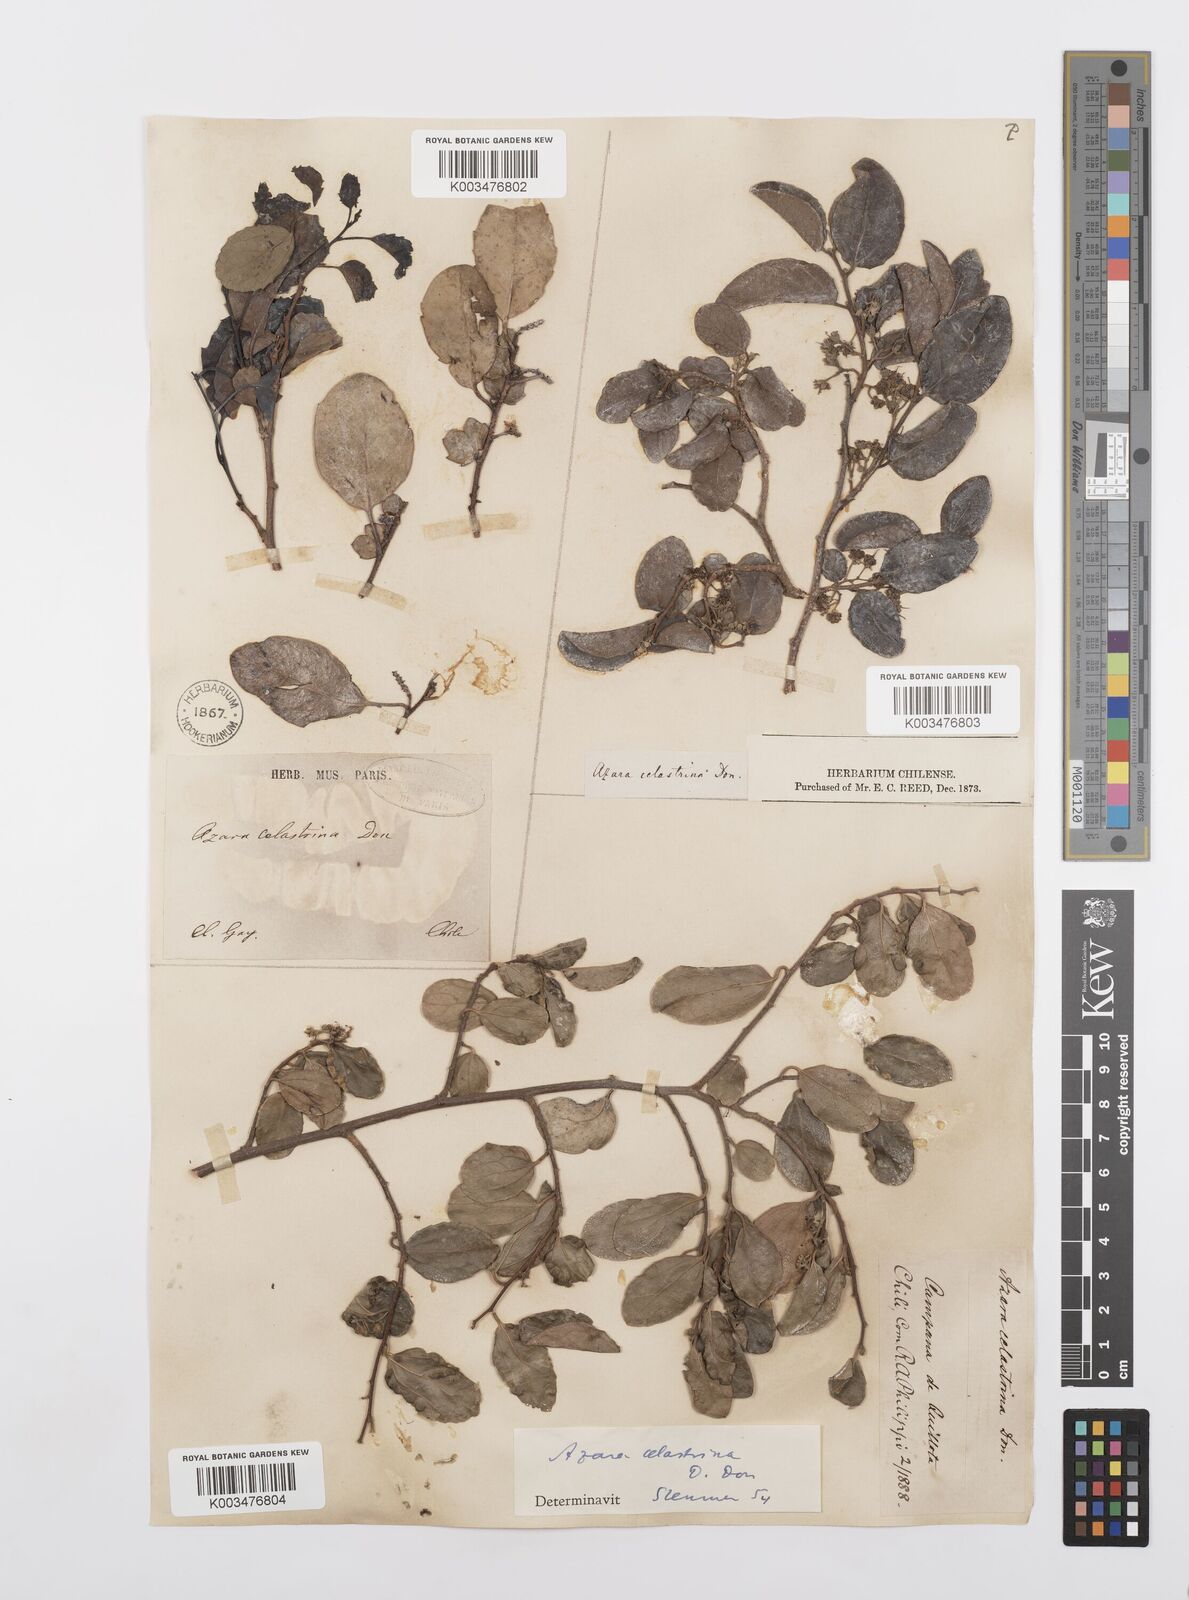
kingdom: Plantae
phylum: Tracheophyta
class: Magnoliopsida
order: Malpighiales
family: Salicaceae
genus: Azara
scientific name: Azara celastrina
